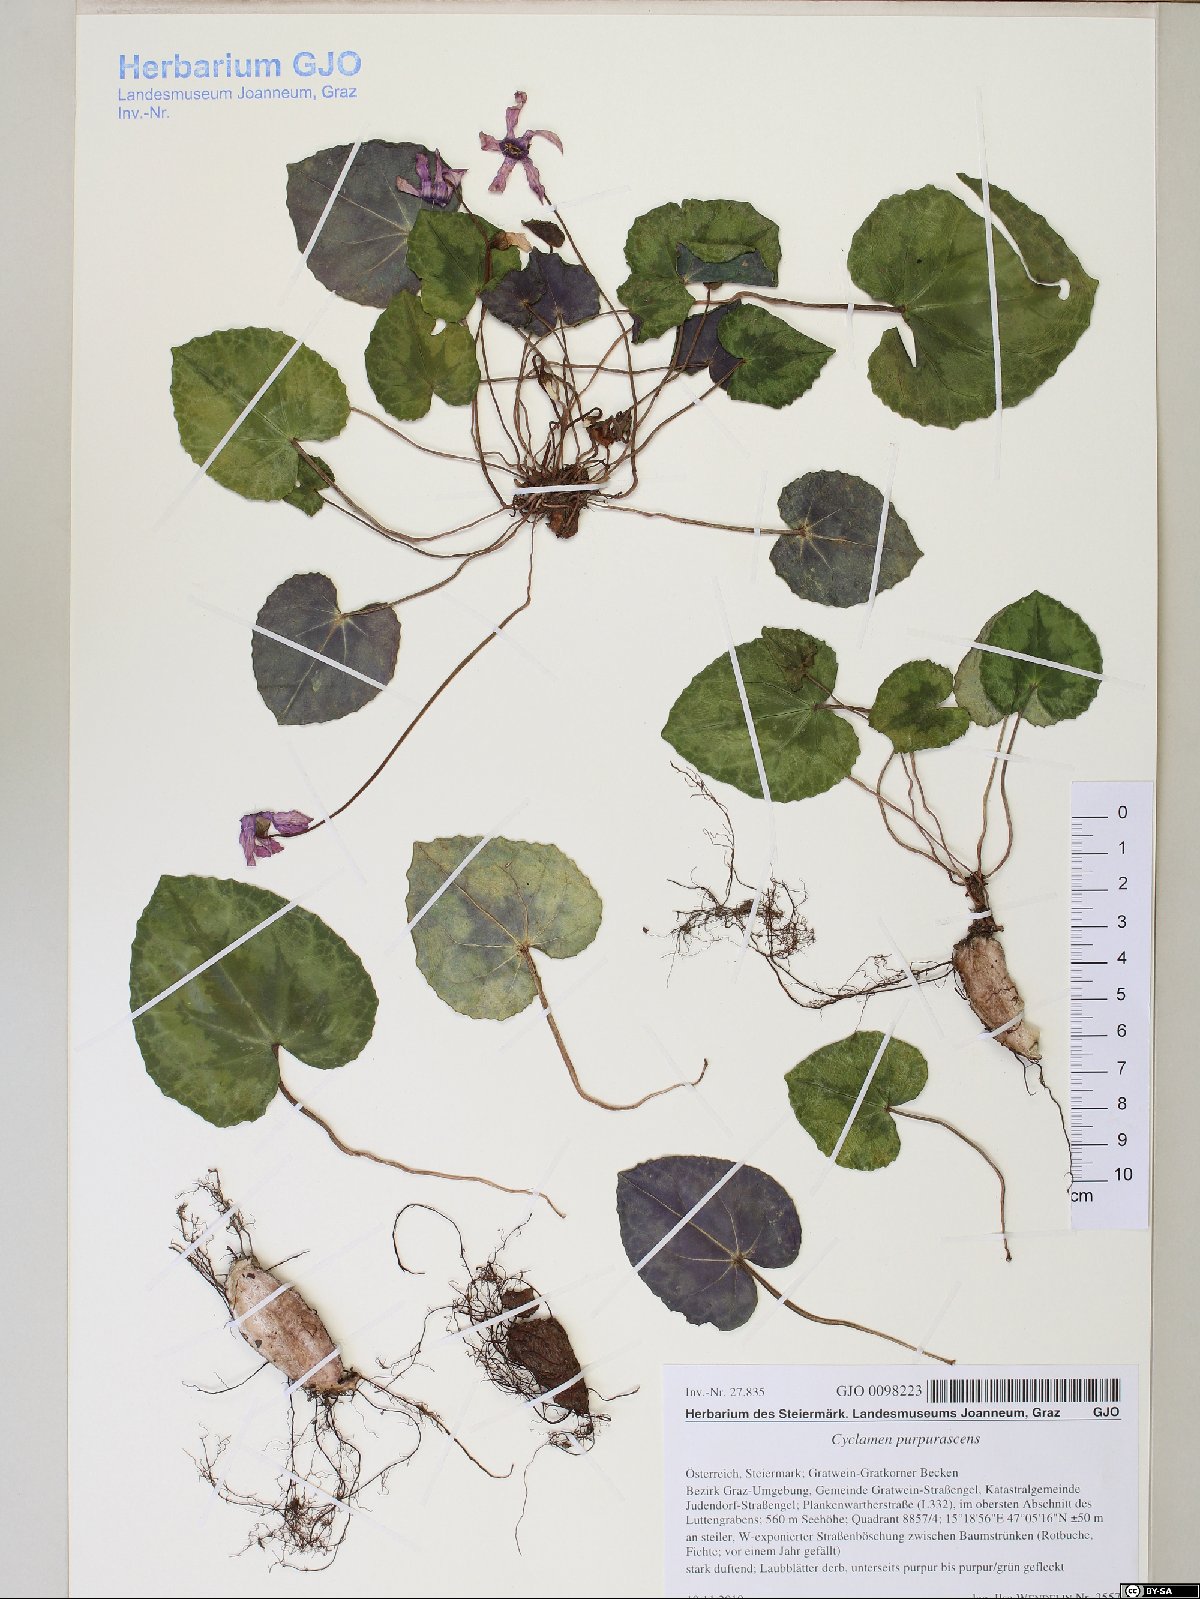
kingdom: Plantae
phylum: Tracheophyta
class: Magnoliopsida
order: Ericales
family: Primulaceae
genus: Cyclamen
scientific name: Cyclamen purpurascens
